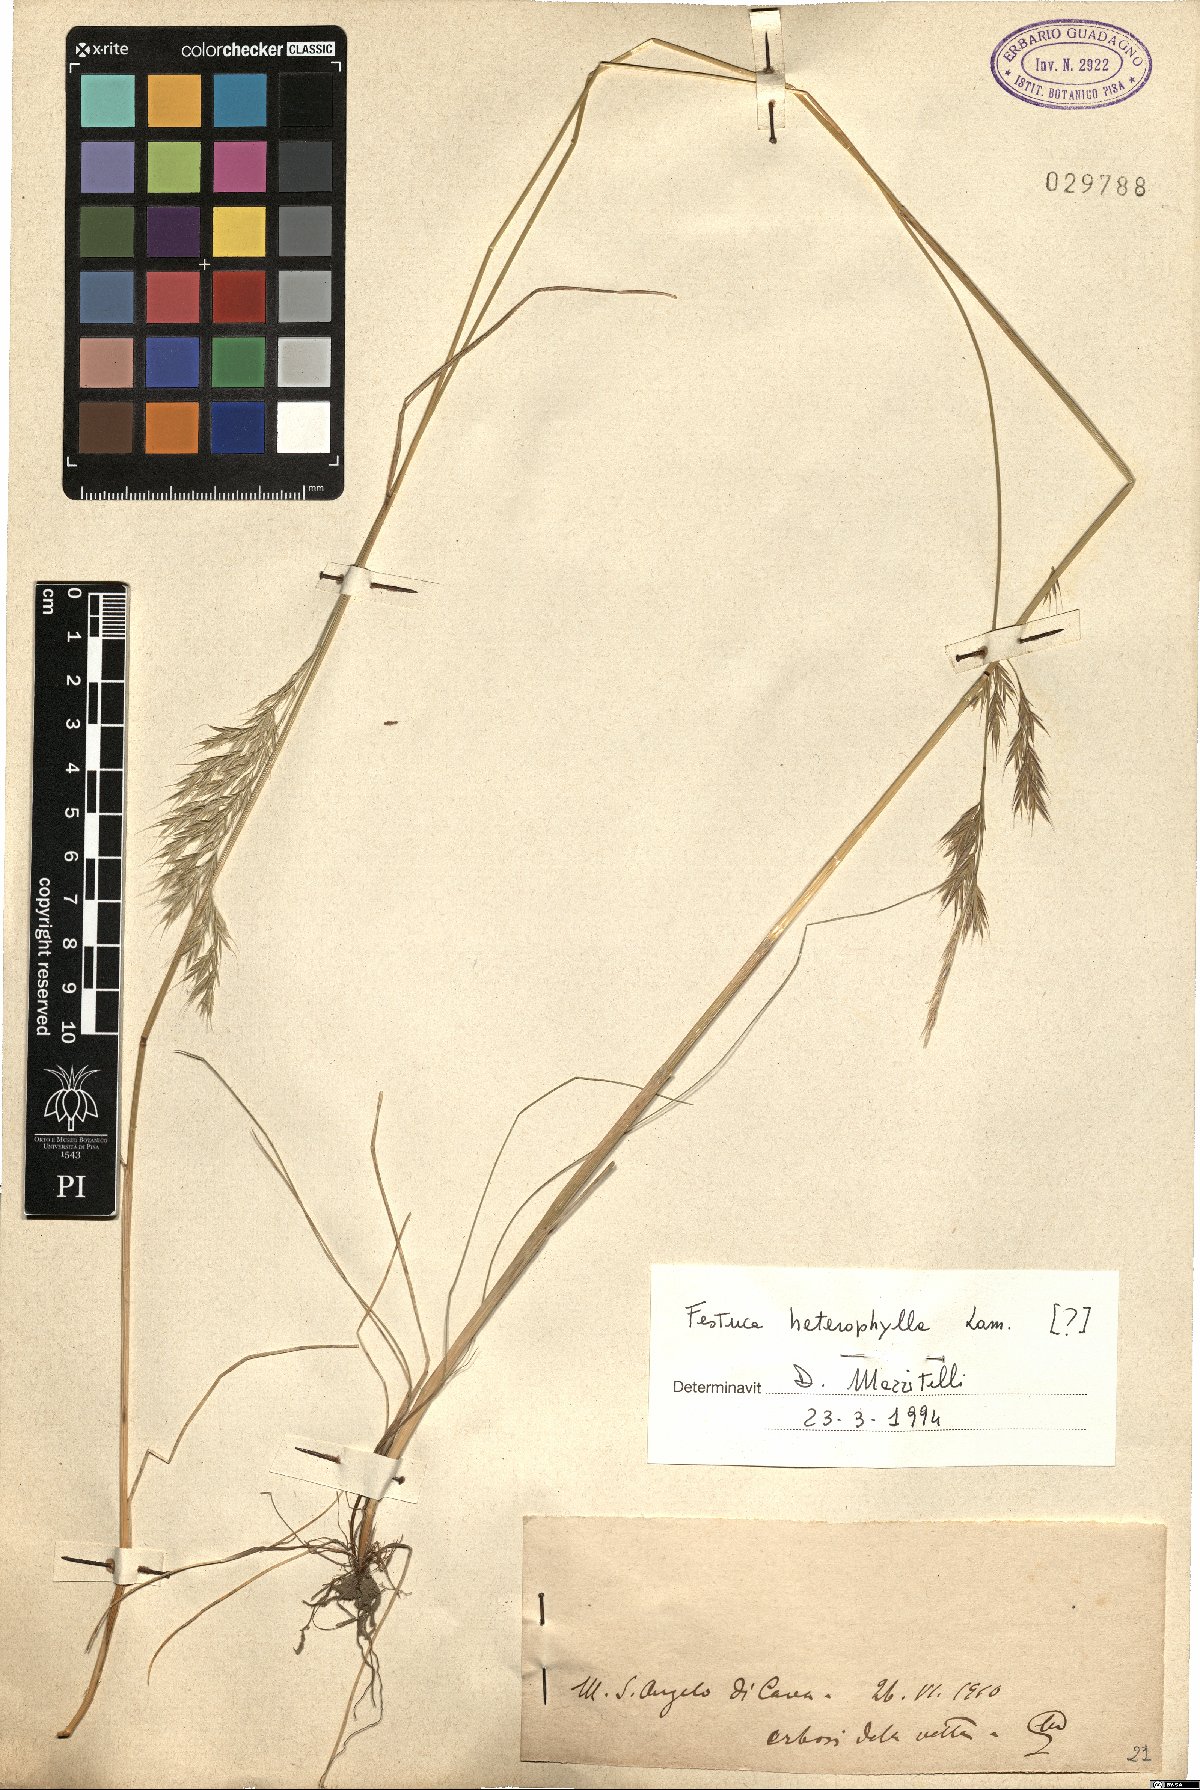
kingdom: Plantae
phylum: Tracheophyta
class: Liliopsida
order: Poales
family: Poaceae
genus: Festuca
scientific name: Festuca heterophylla
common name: Various-leaved fescue
